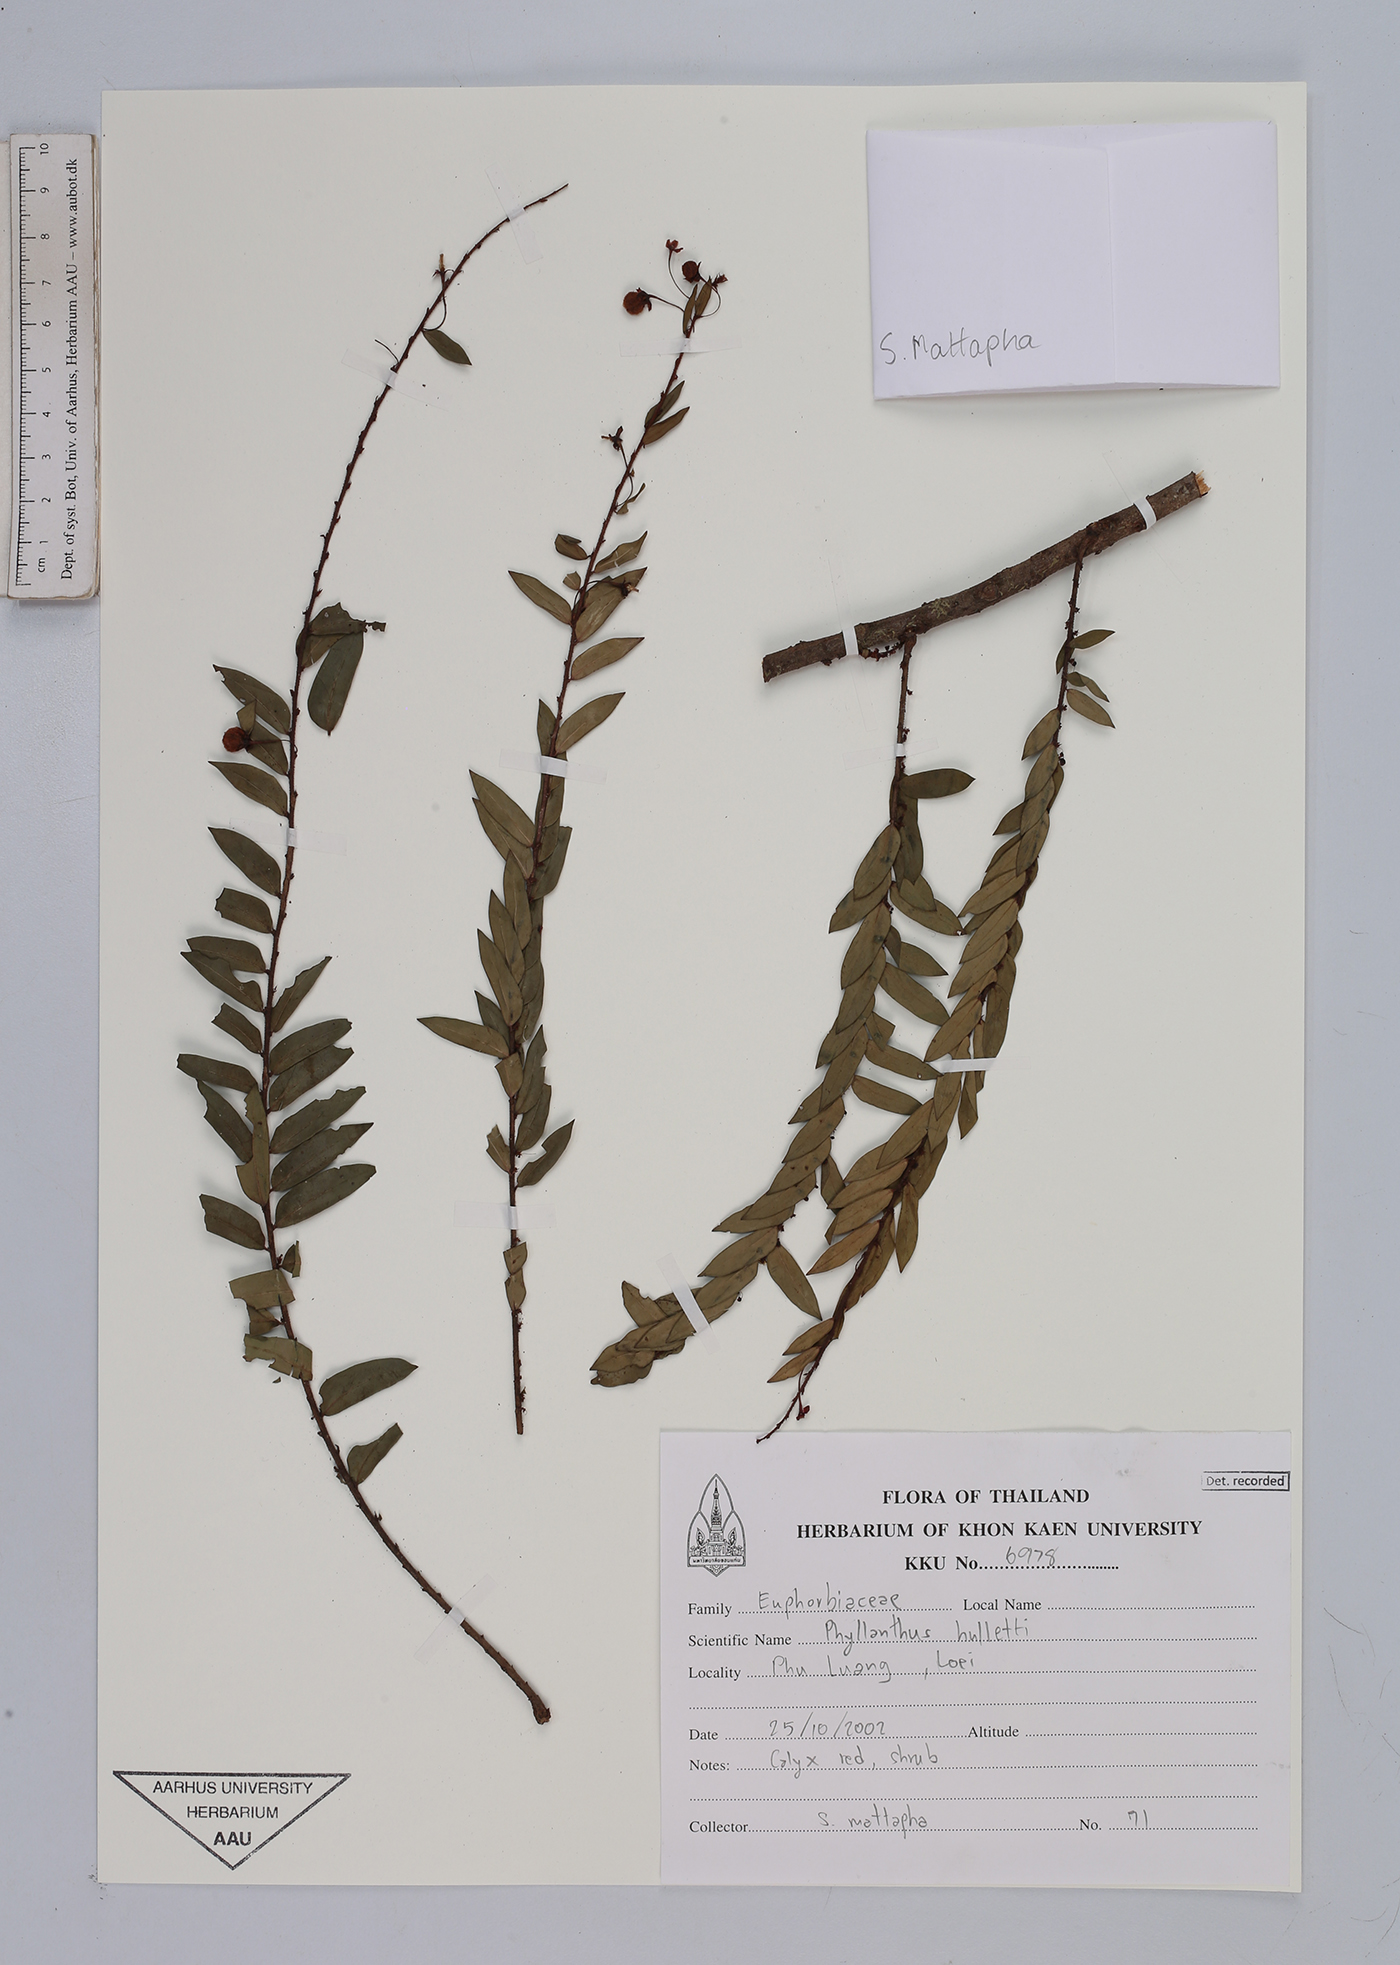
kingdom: Plantae
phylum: Tracheophyta
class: Magnoliopsida
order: Malpighiales
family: Phyllanthaceae
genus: Phyllanthus
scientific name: Phyllanthus gracilipes
